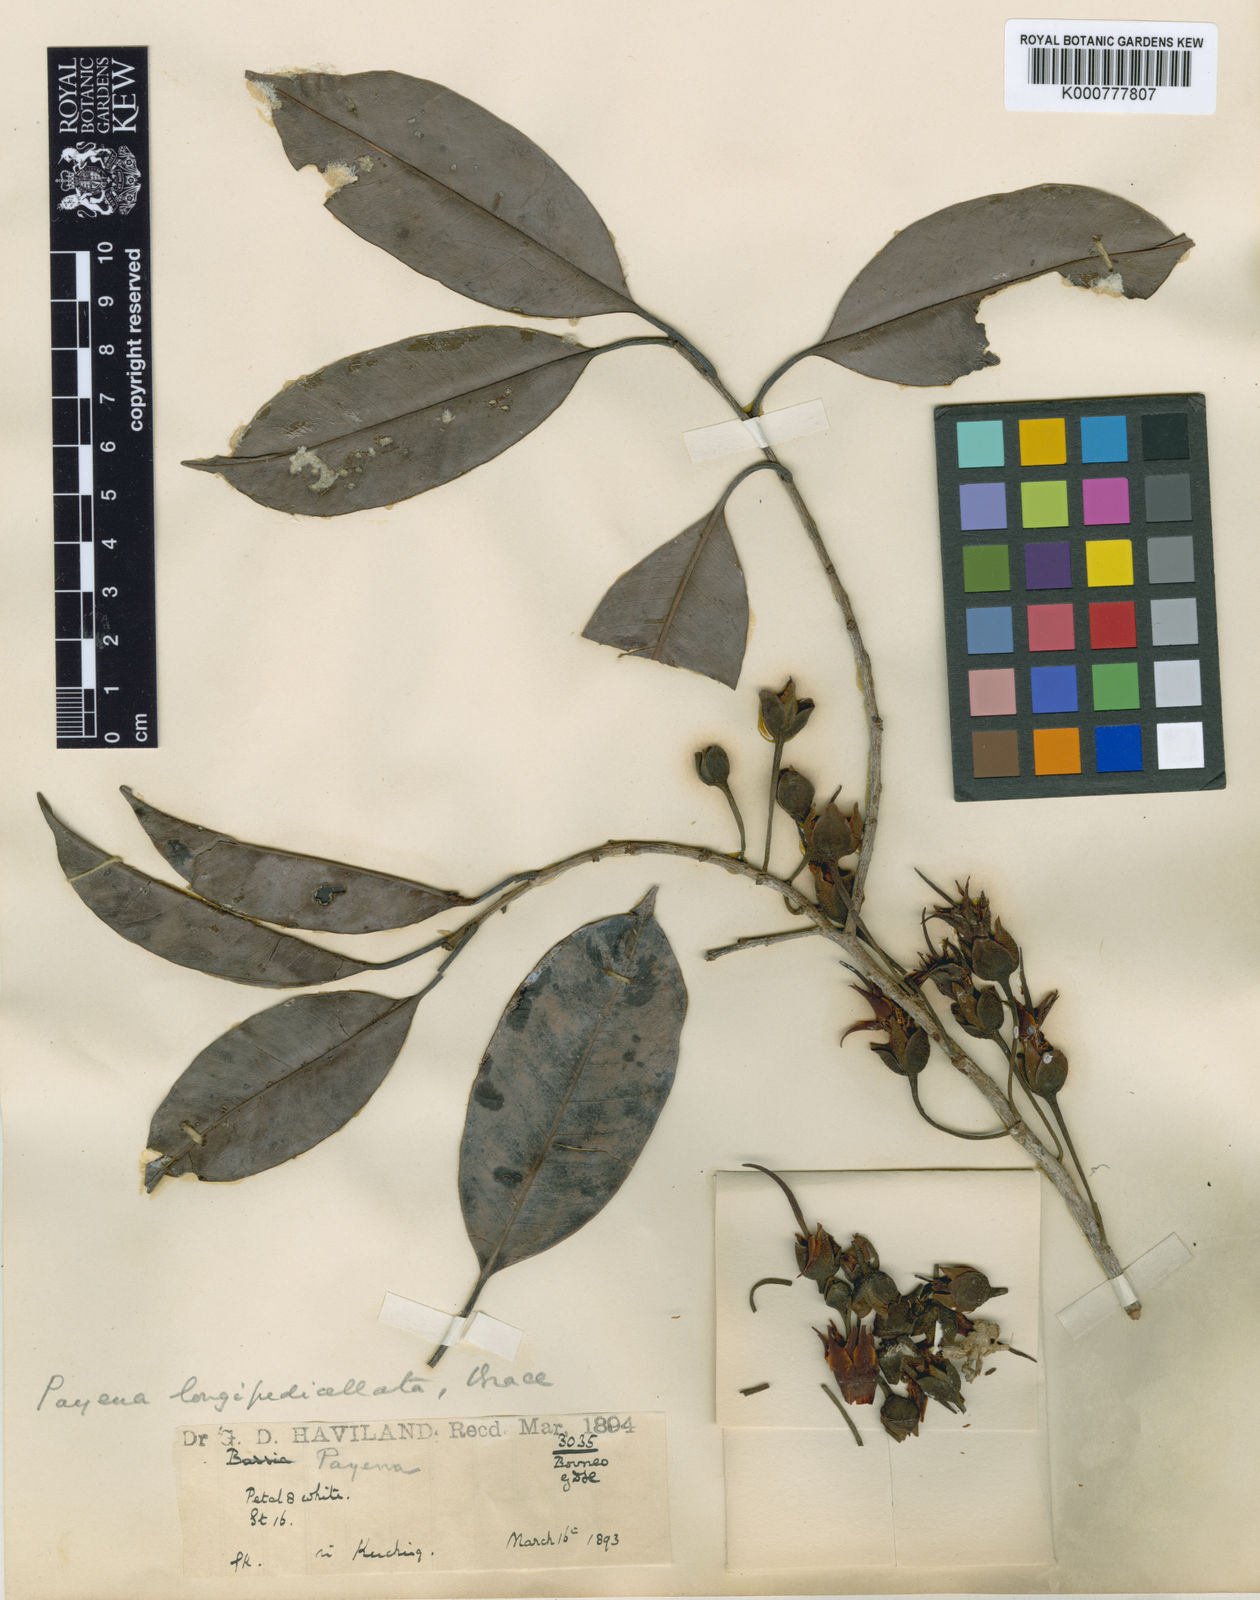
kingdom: Plantae
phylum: Tracheophyta
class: Magnoliopsida
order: Ericales
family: Sapotaceae
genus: Payena
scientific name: Payena longipedicellata
